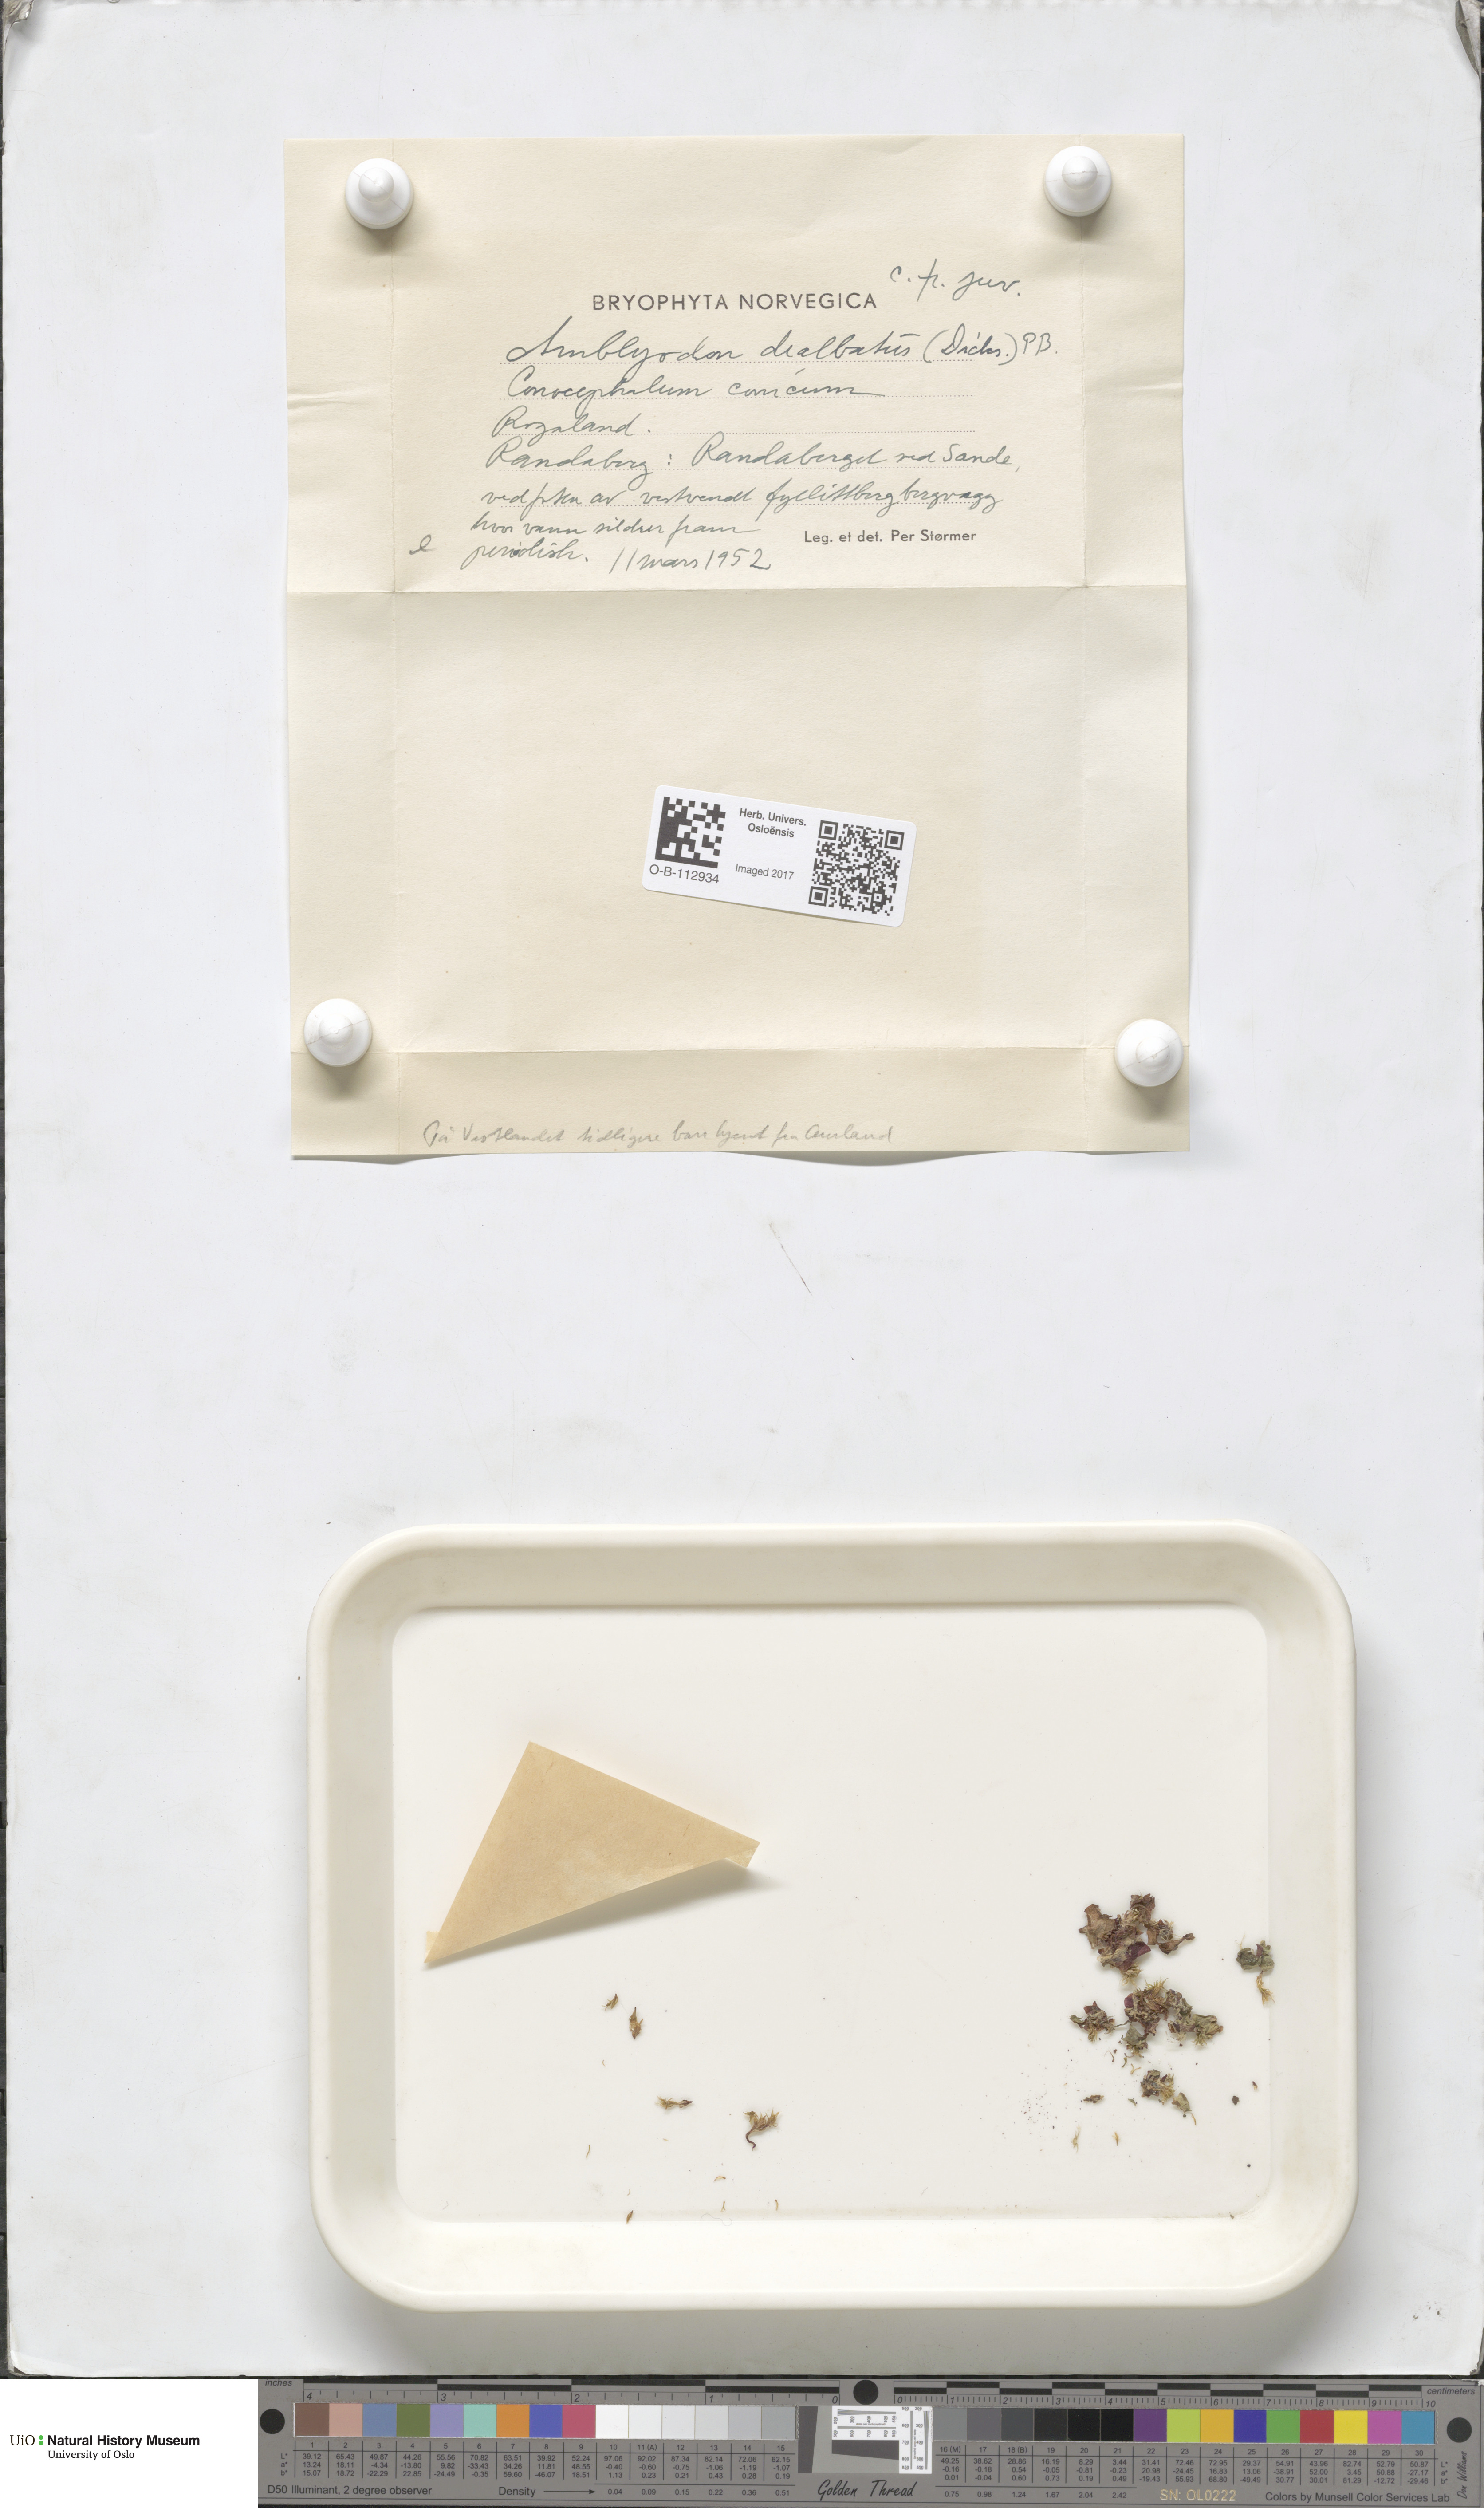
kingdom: Plantae
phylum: Bryophyta
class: Bryopsida
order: Pottiales
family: Pottiaceae
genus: Aloina
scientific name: Aloina
